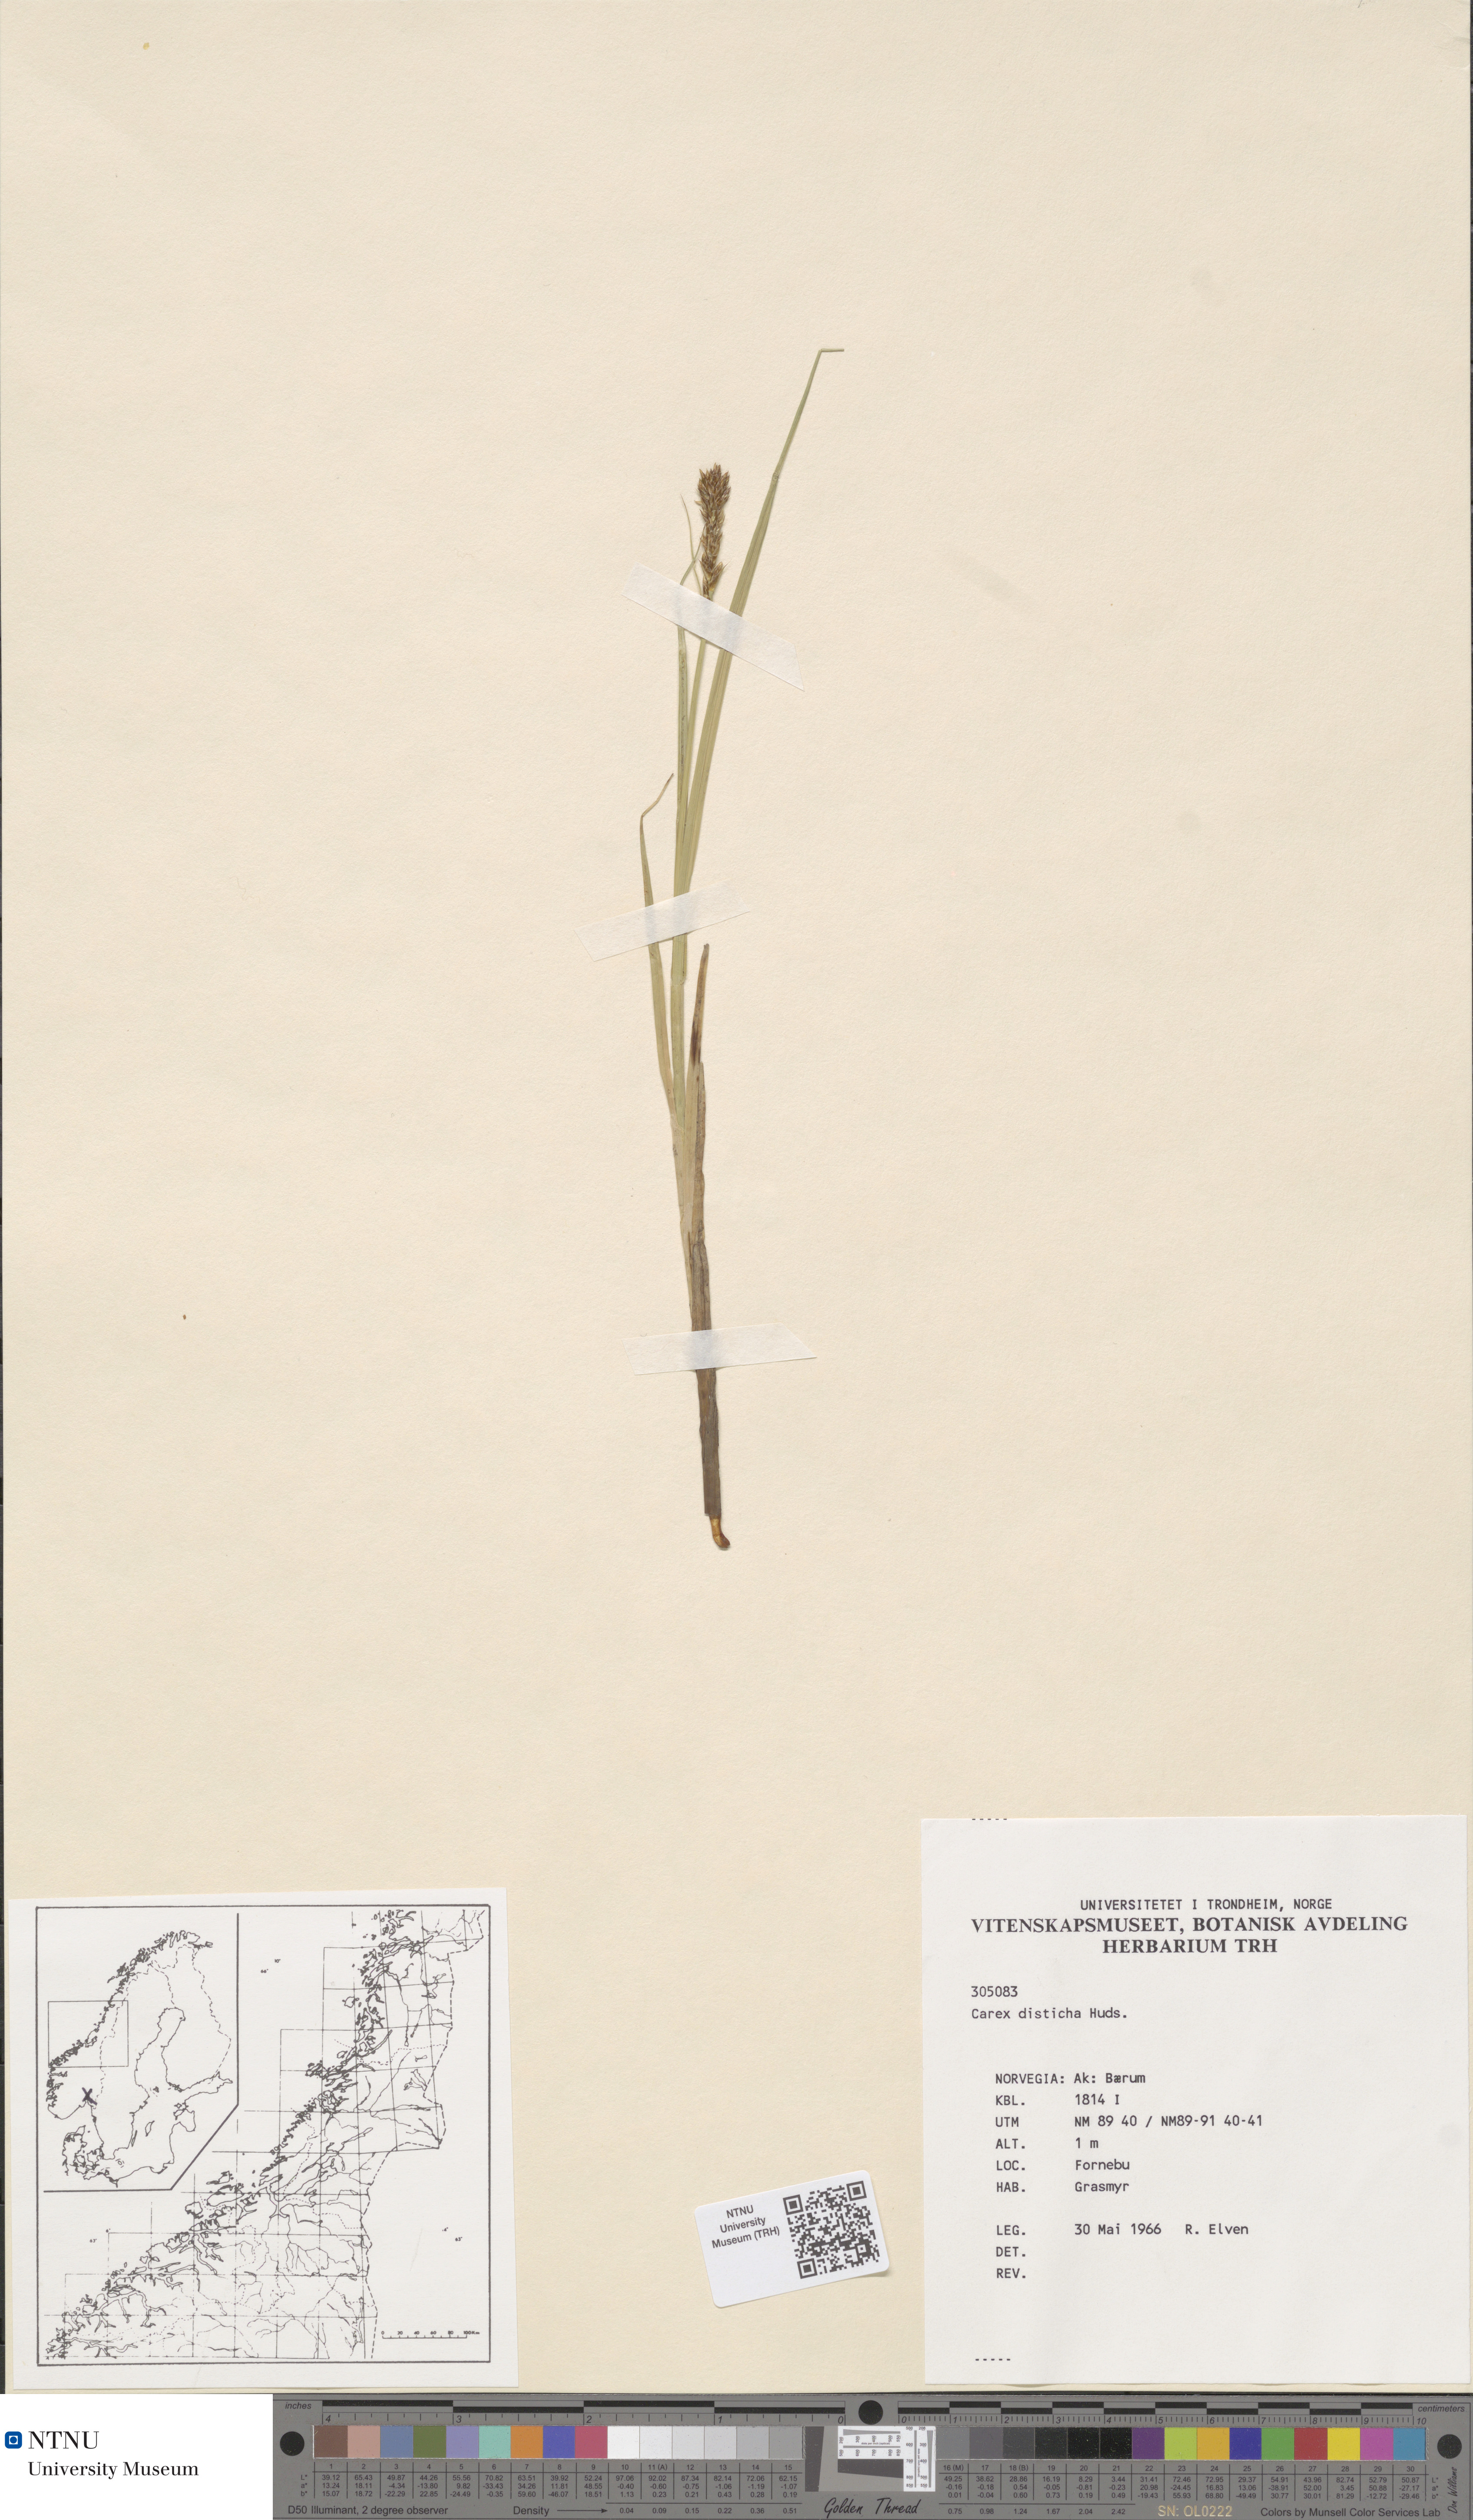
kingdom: Plantae
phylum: Tracheophyta
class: Liliopsida
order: Poales
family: Cyperaceae
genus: Carex
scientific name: Carex disticha
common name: Brown sedge
